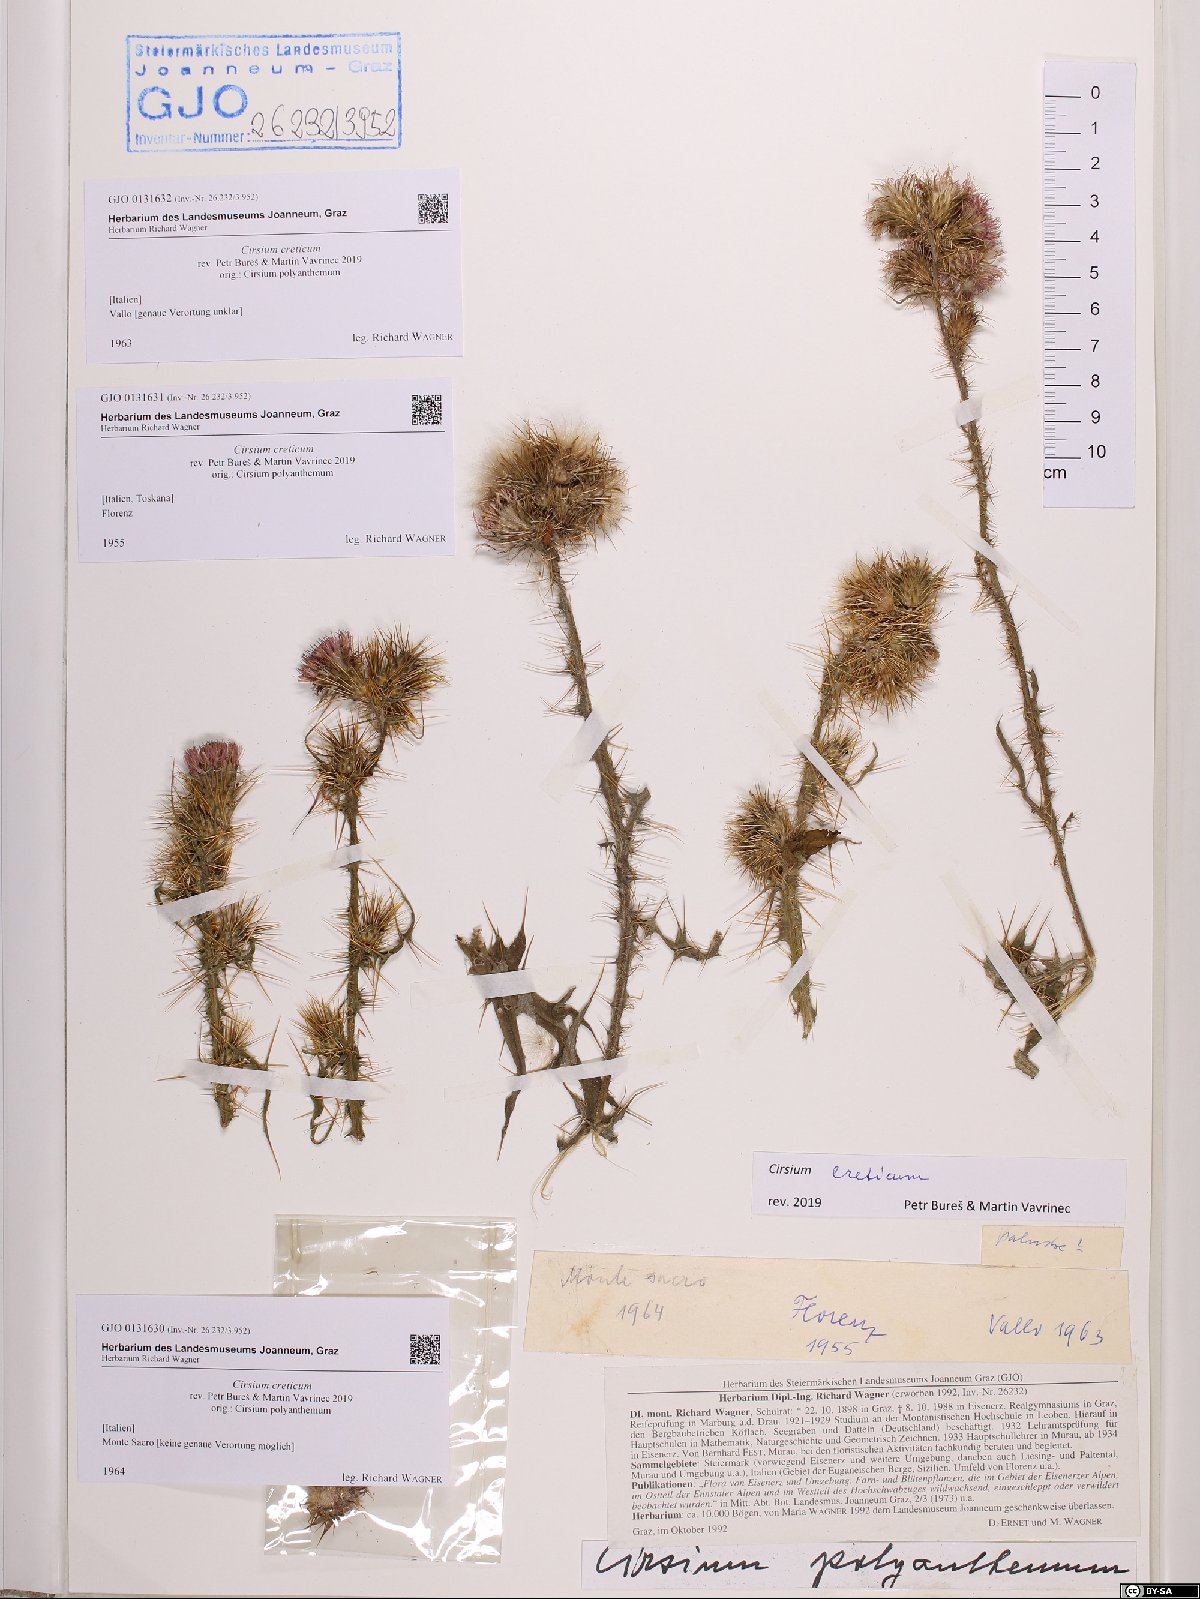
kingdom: Plantae
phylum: Tracheophyta
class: Magnoliopsida
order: Asterales
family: Asteraceae
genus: Cirsium
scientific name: Cirsium creticum
